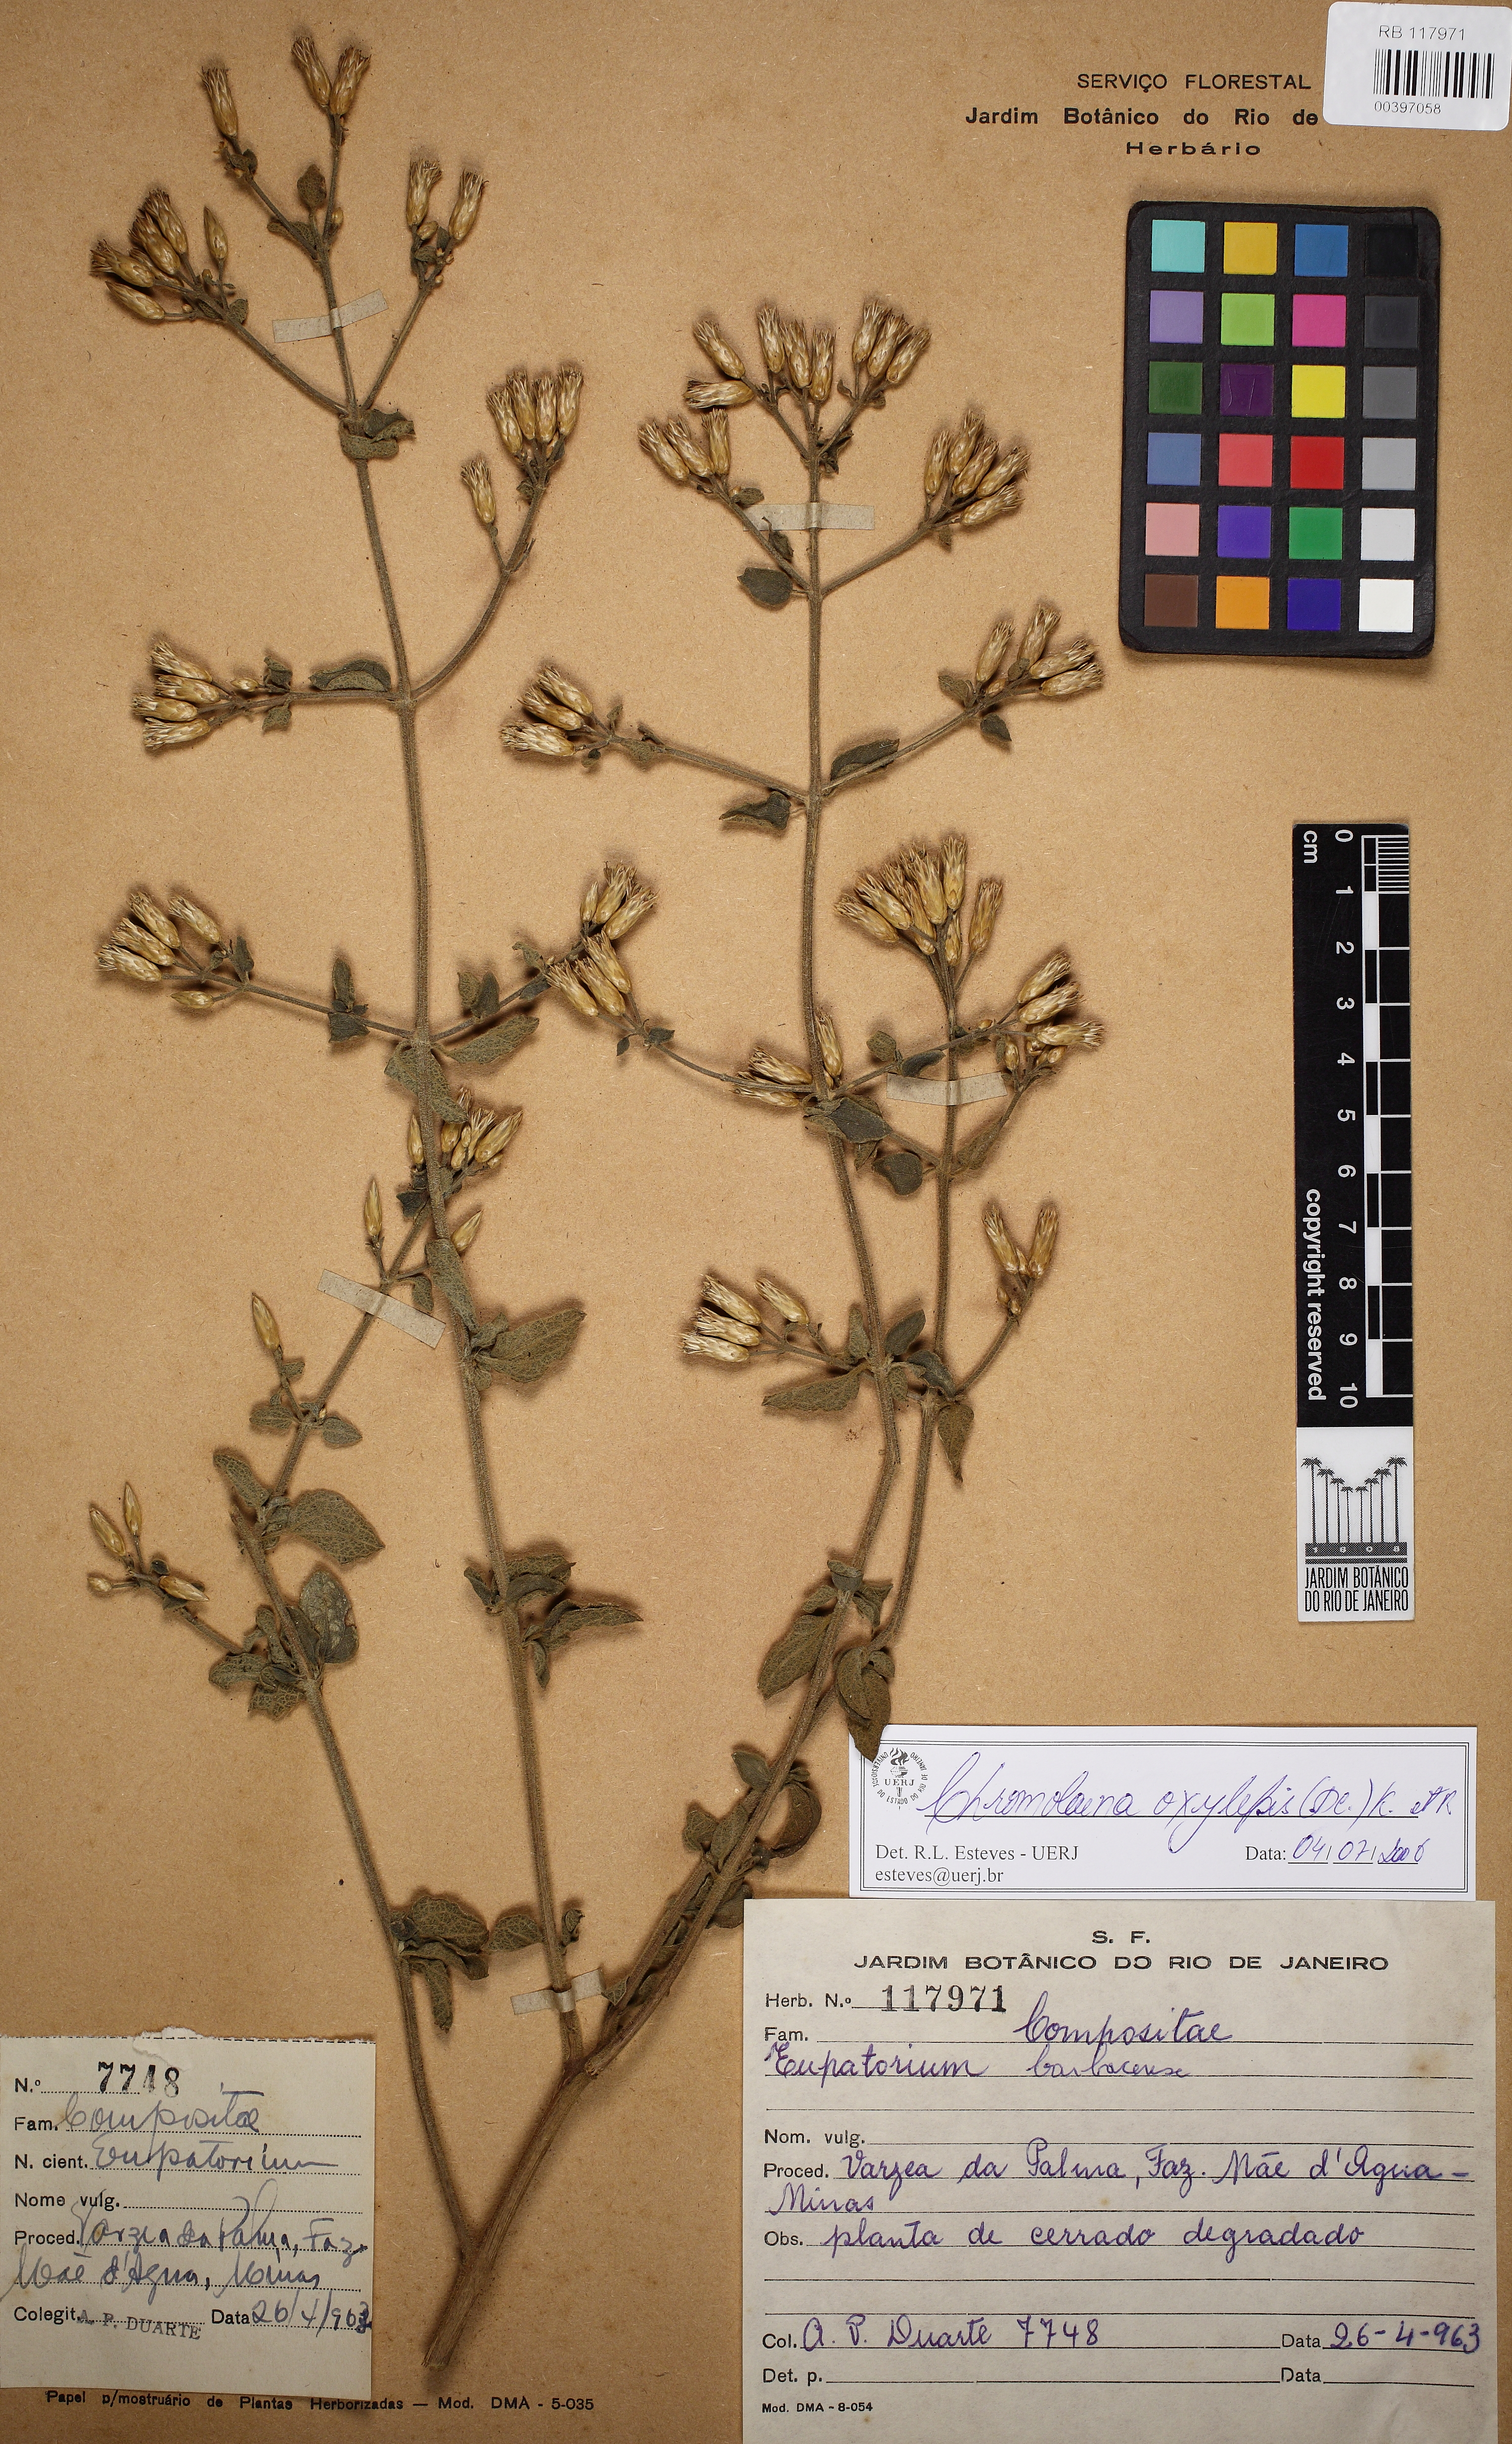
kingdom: Plantae
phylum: Tracheophyta
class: Magnoliopsida
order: Asterales
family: Asteraceae
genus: Chromolaena
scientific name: Chromolaena oxylepis
